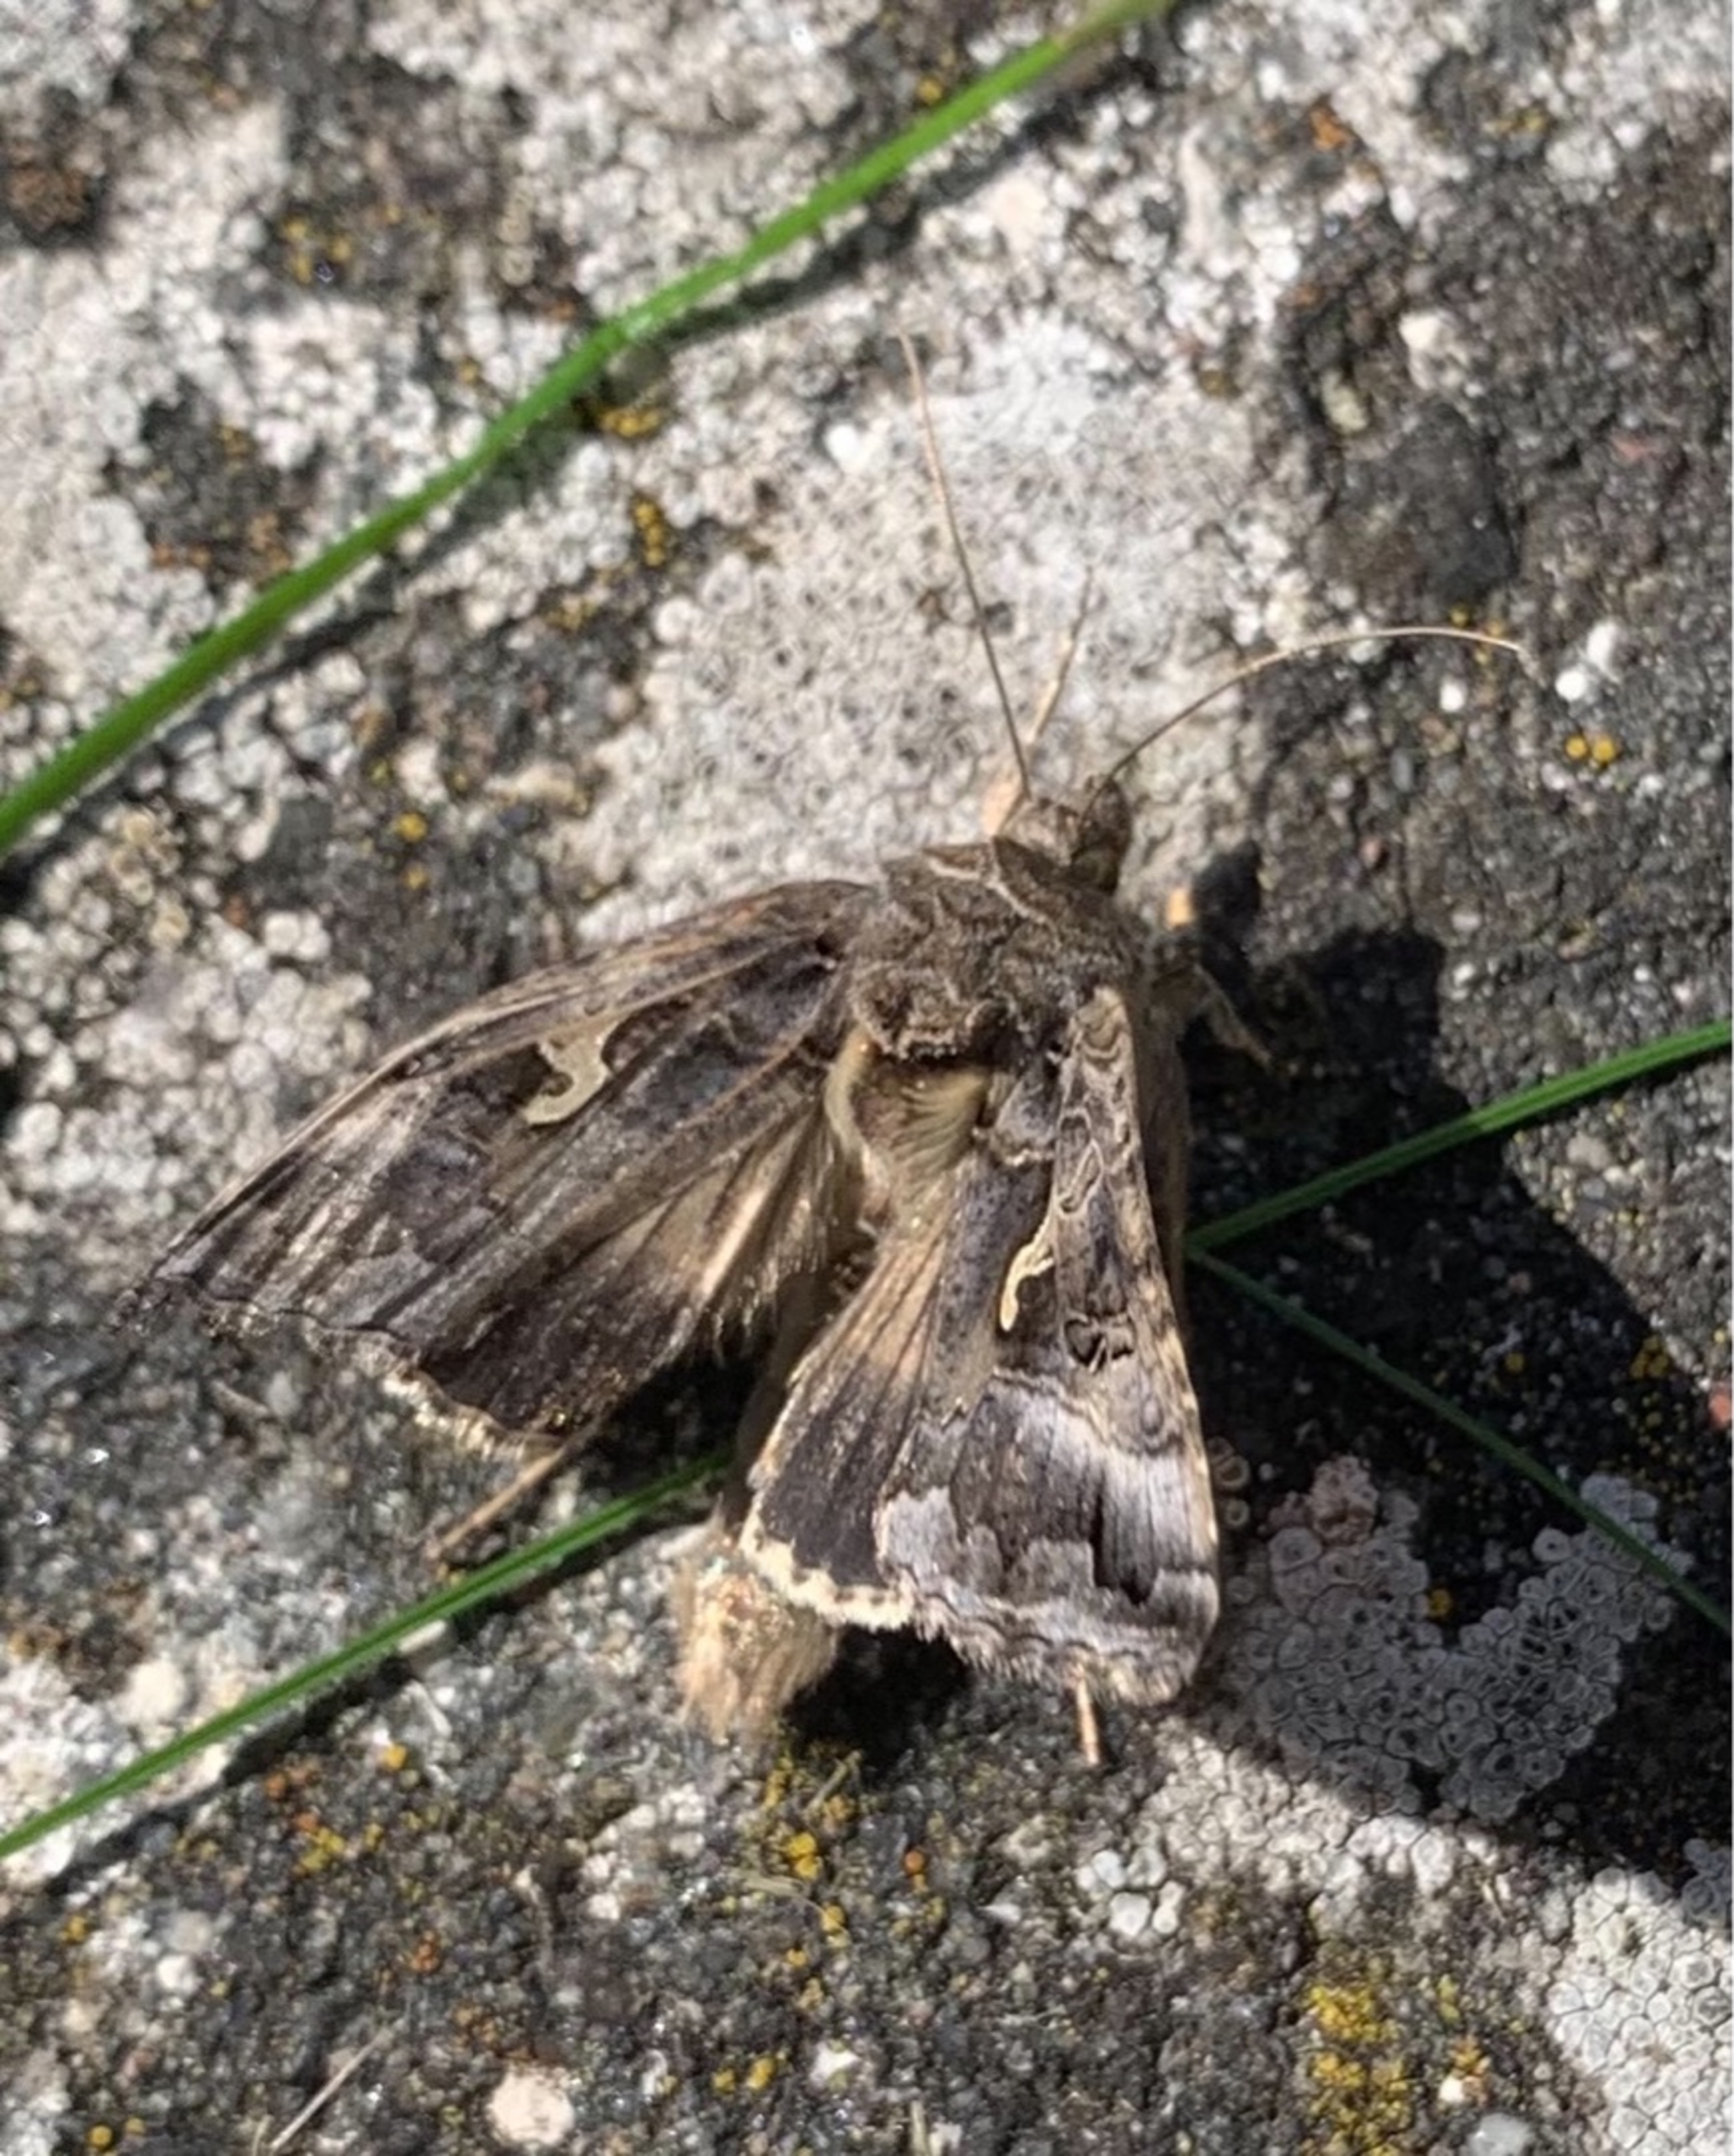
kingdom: Animalia
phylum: Arthropoda
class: Insecta
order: Lepidoptera
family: Noctuidae
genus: Autographa
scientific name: Autographa gamma
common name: Gammaugle
